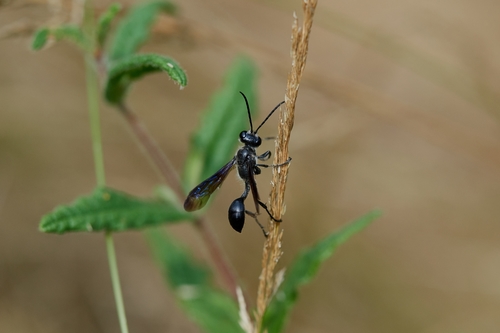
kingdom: Animalia
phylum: Arthropoda
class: Insecta
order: Hymenoptera
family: Sphecidae
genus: Isodontia
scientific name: Isodontia mexicana
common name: Mud dauber
